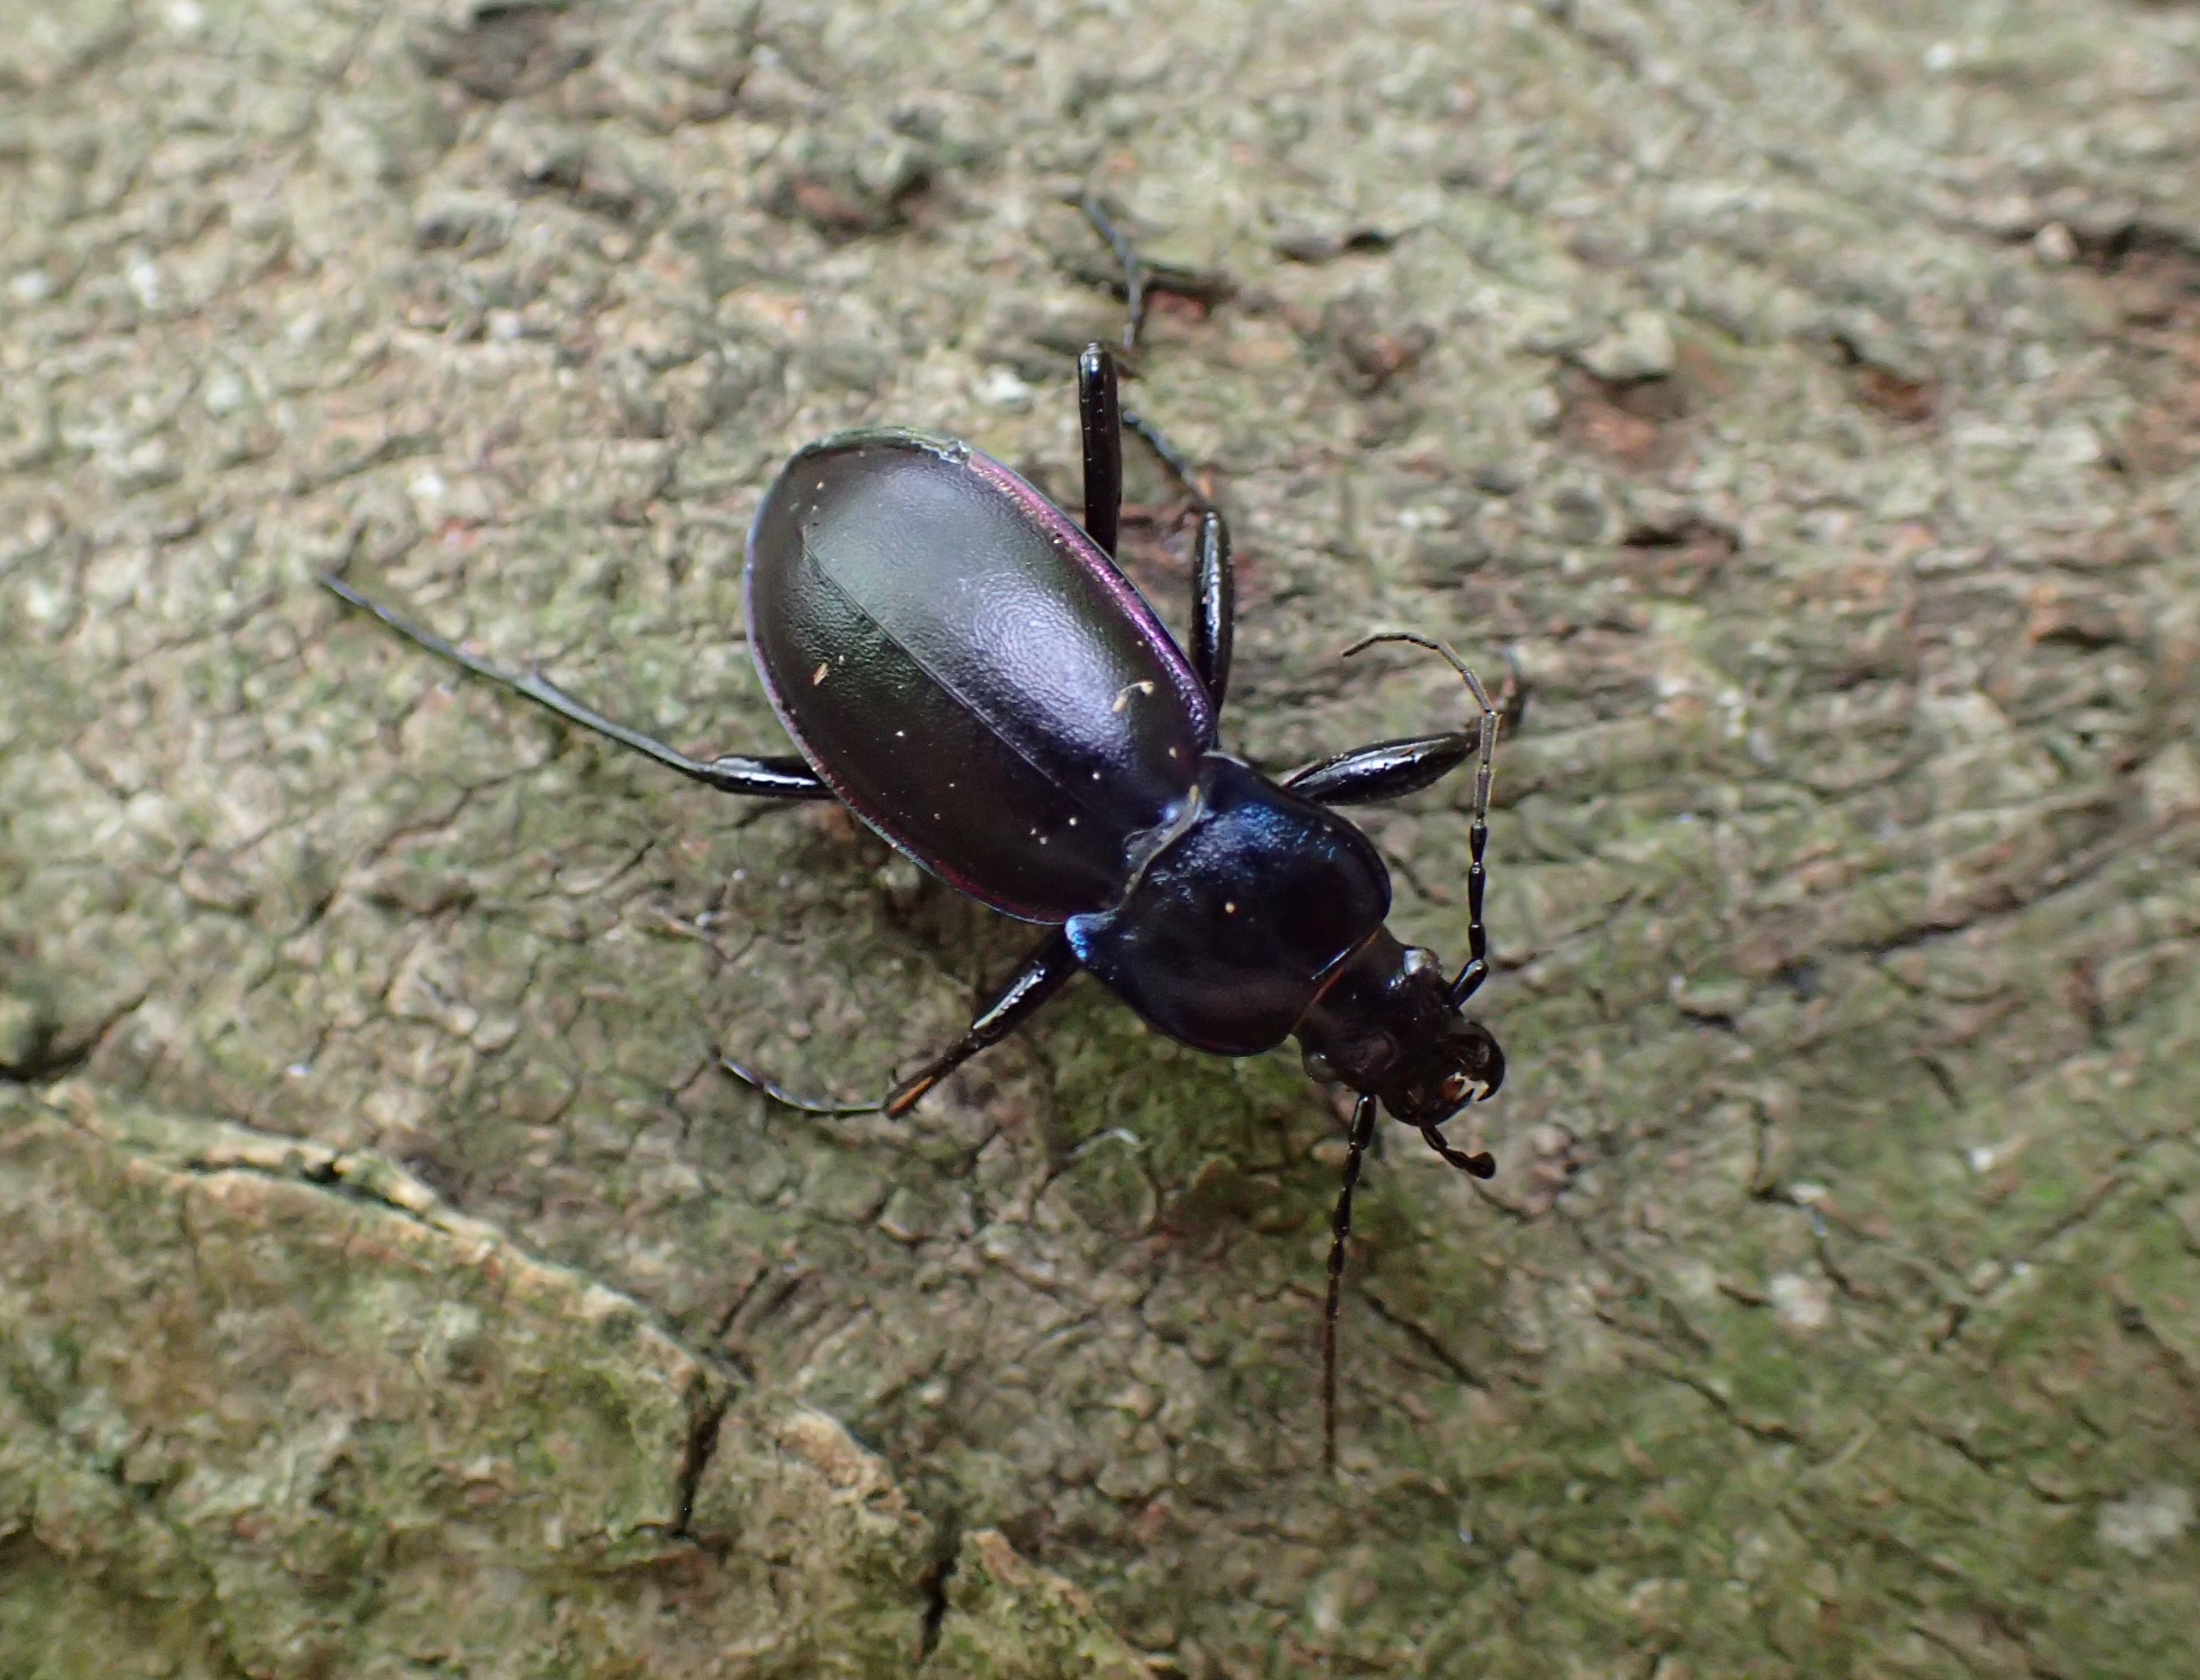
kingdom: Animalia
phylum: Arthropoda
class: Insecta
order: Coleoptera
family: Carabidae
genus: Carabus
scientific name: Carabus violaceus
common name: Violetrandet løber
